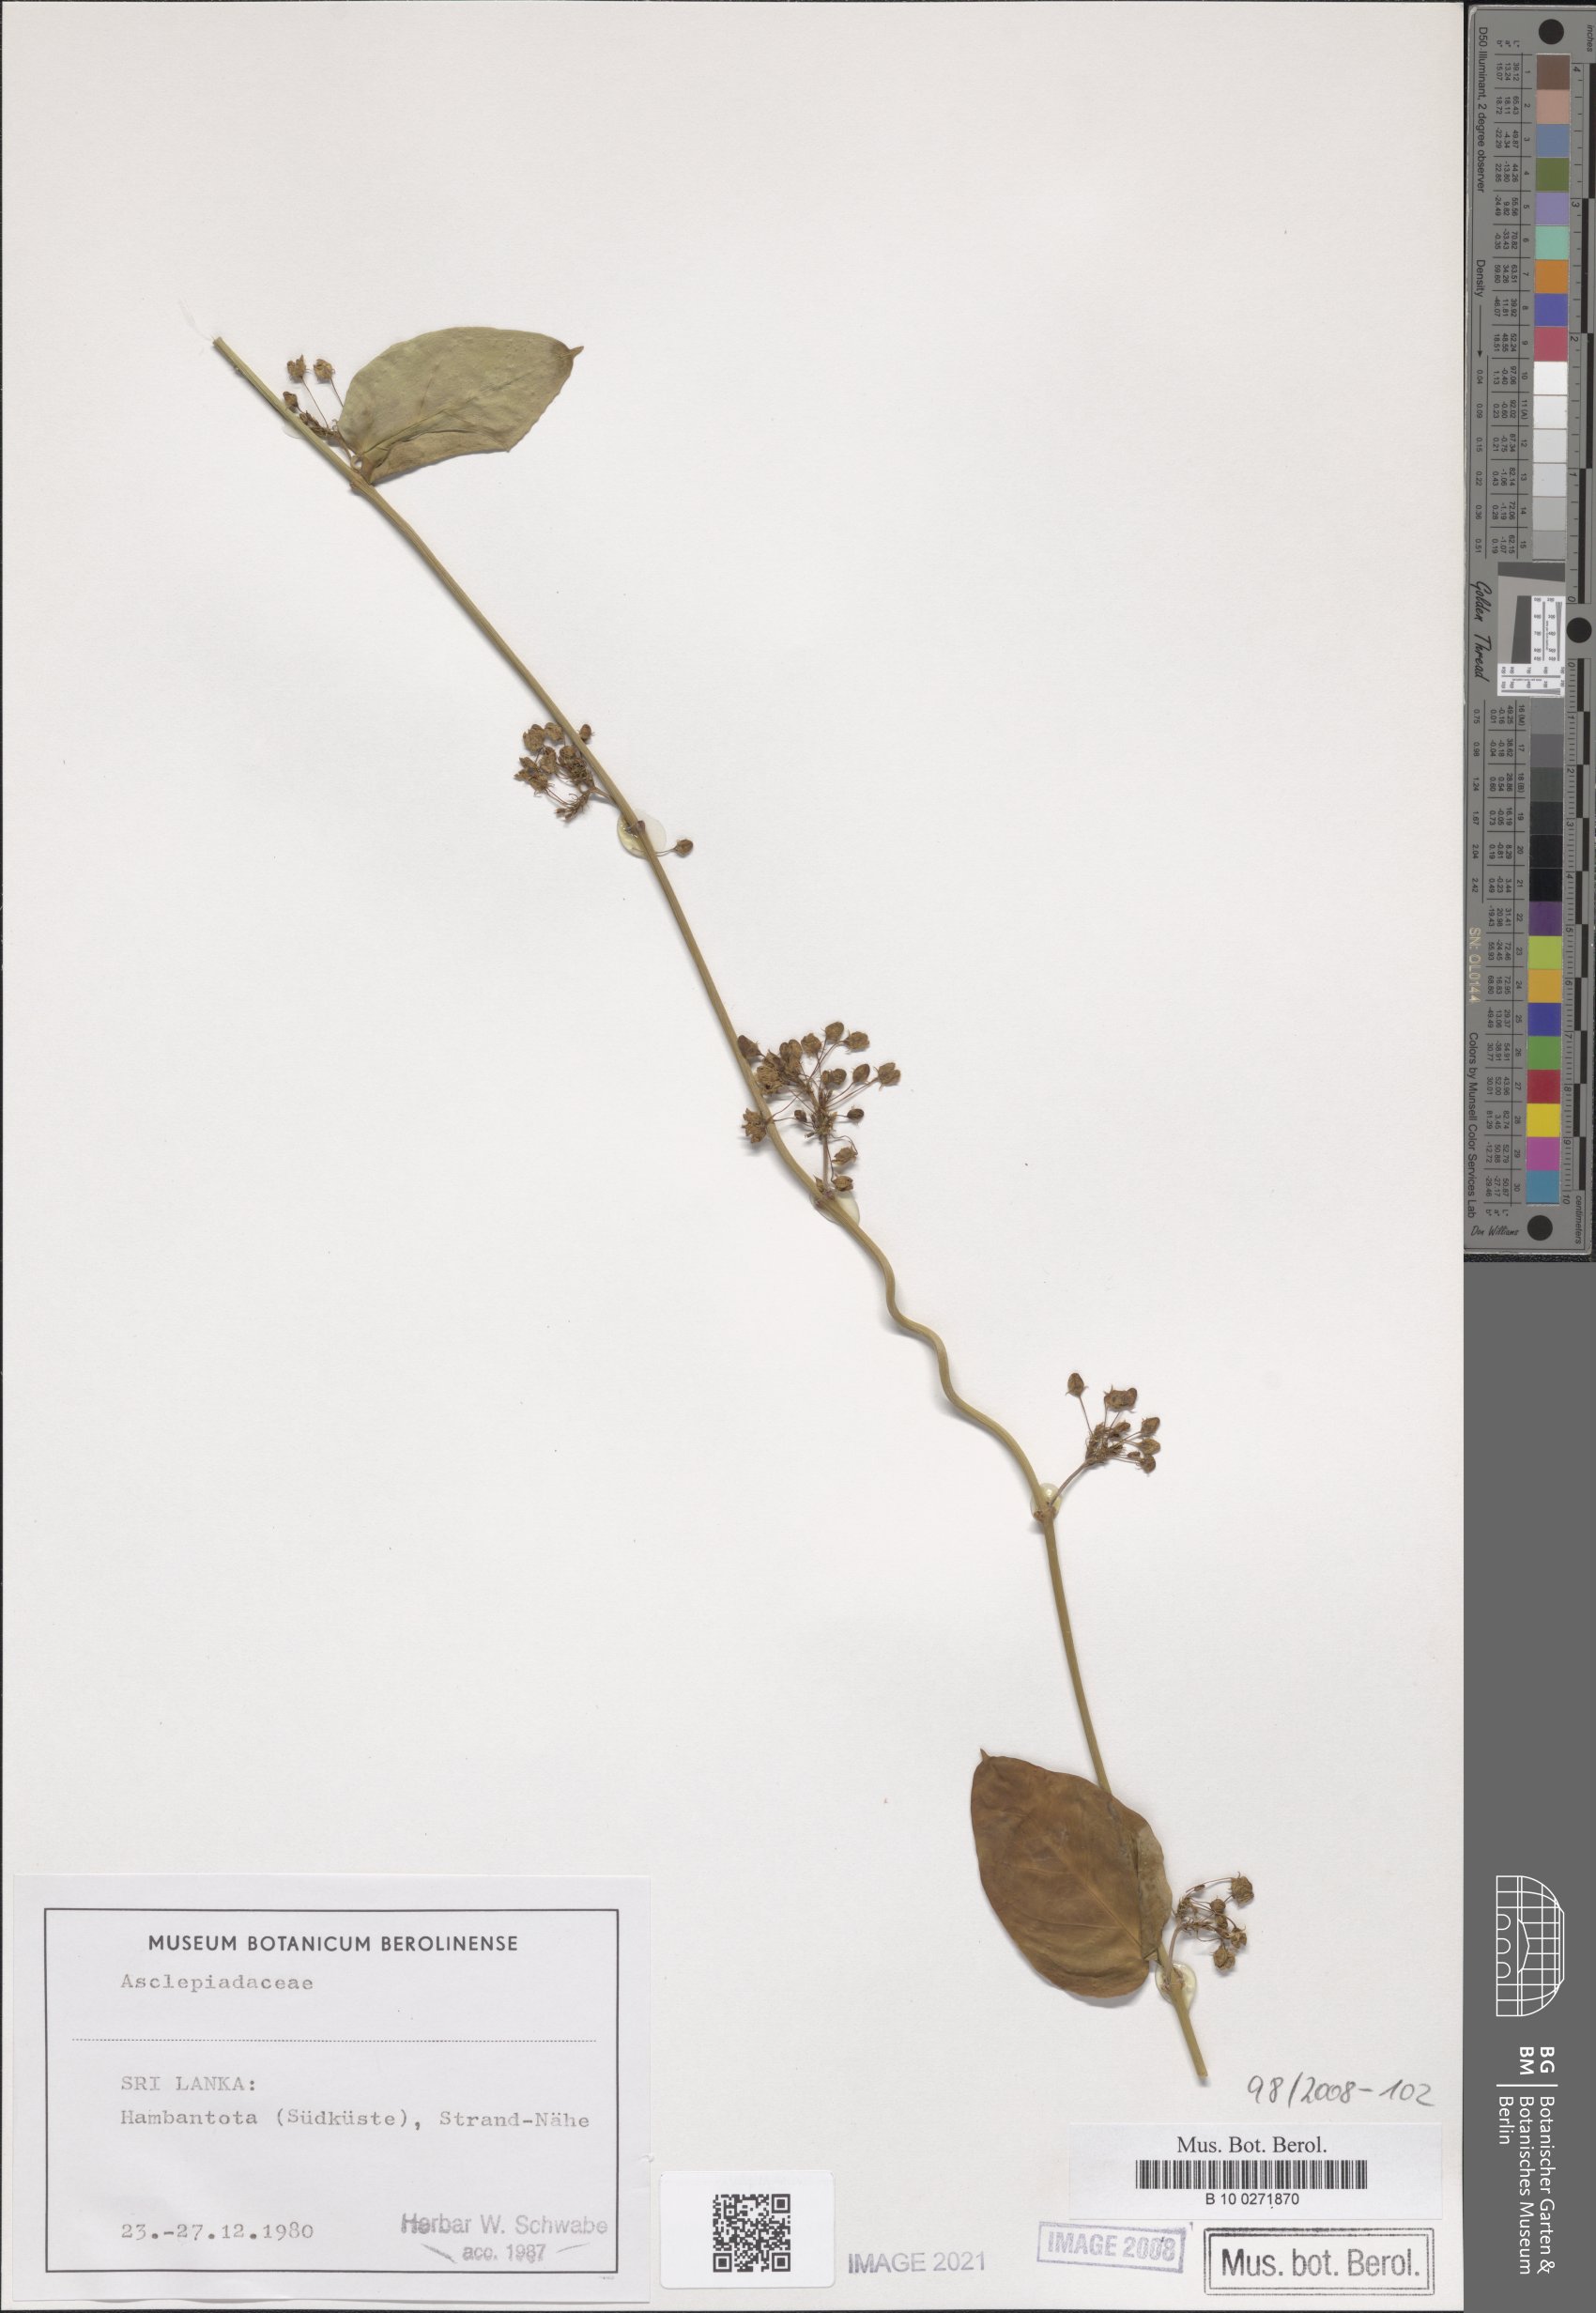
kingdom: Plantae
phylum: Tracheophyta
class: Magnoliopsida
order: Gentianales
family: Asclepiadaceae
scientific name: Asclepiadaceae
